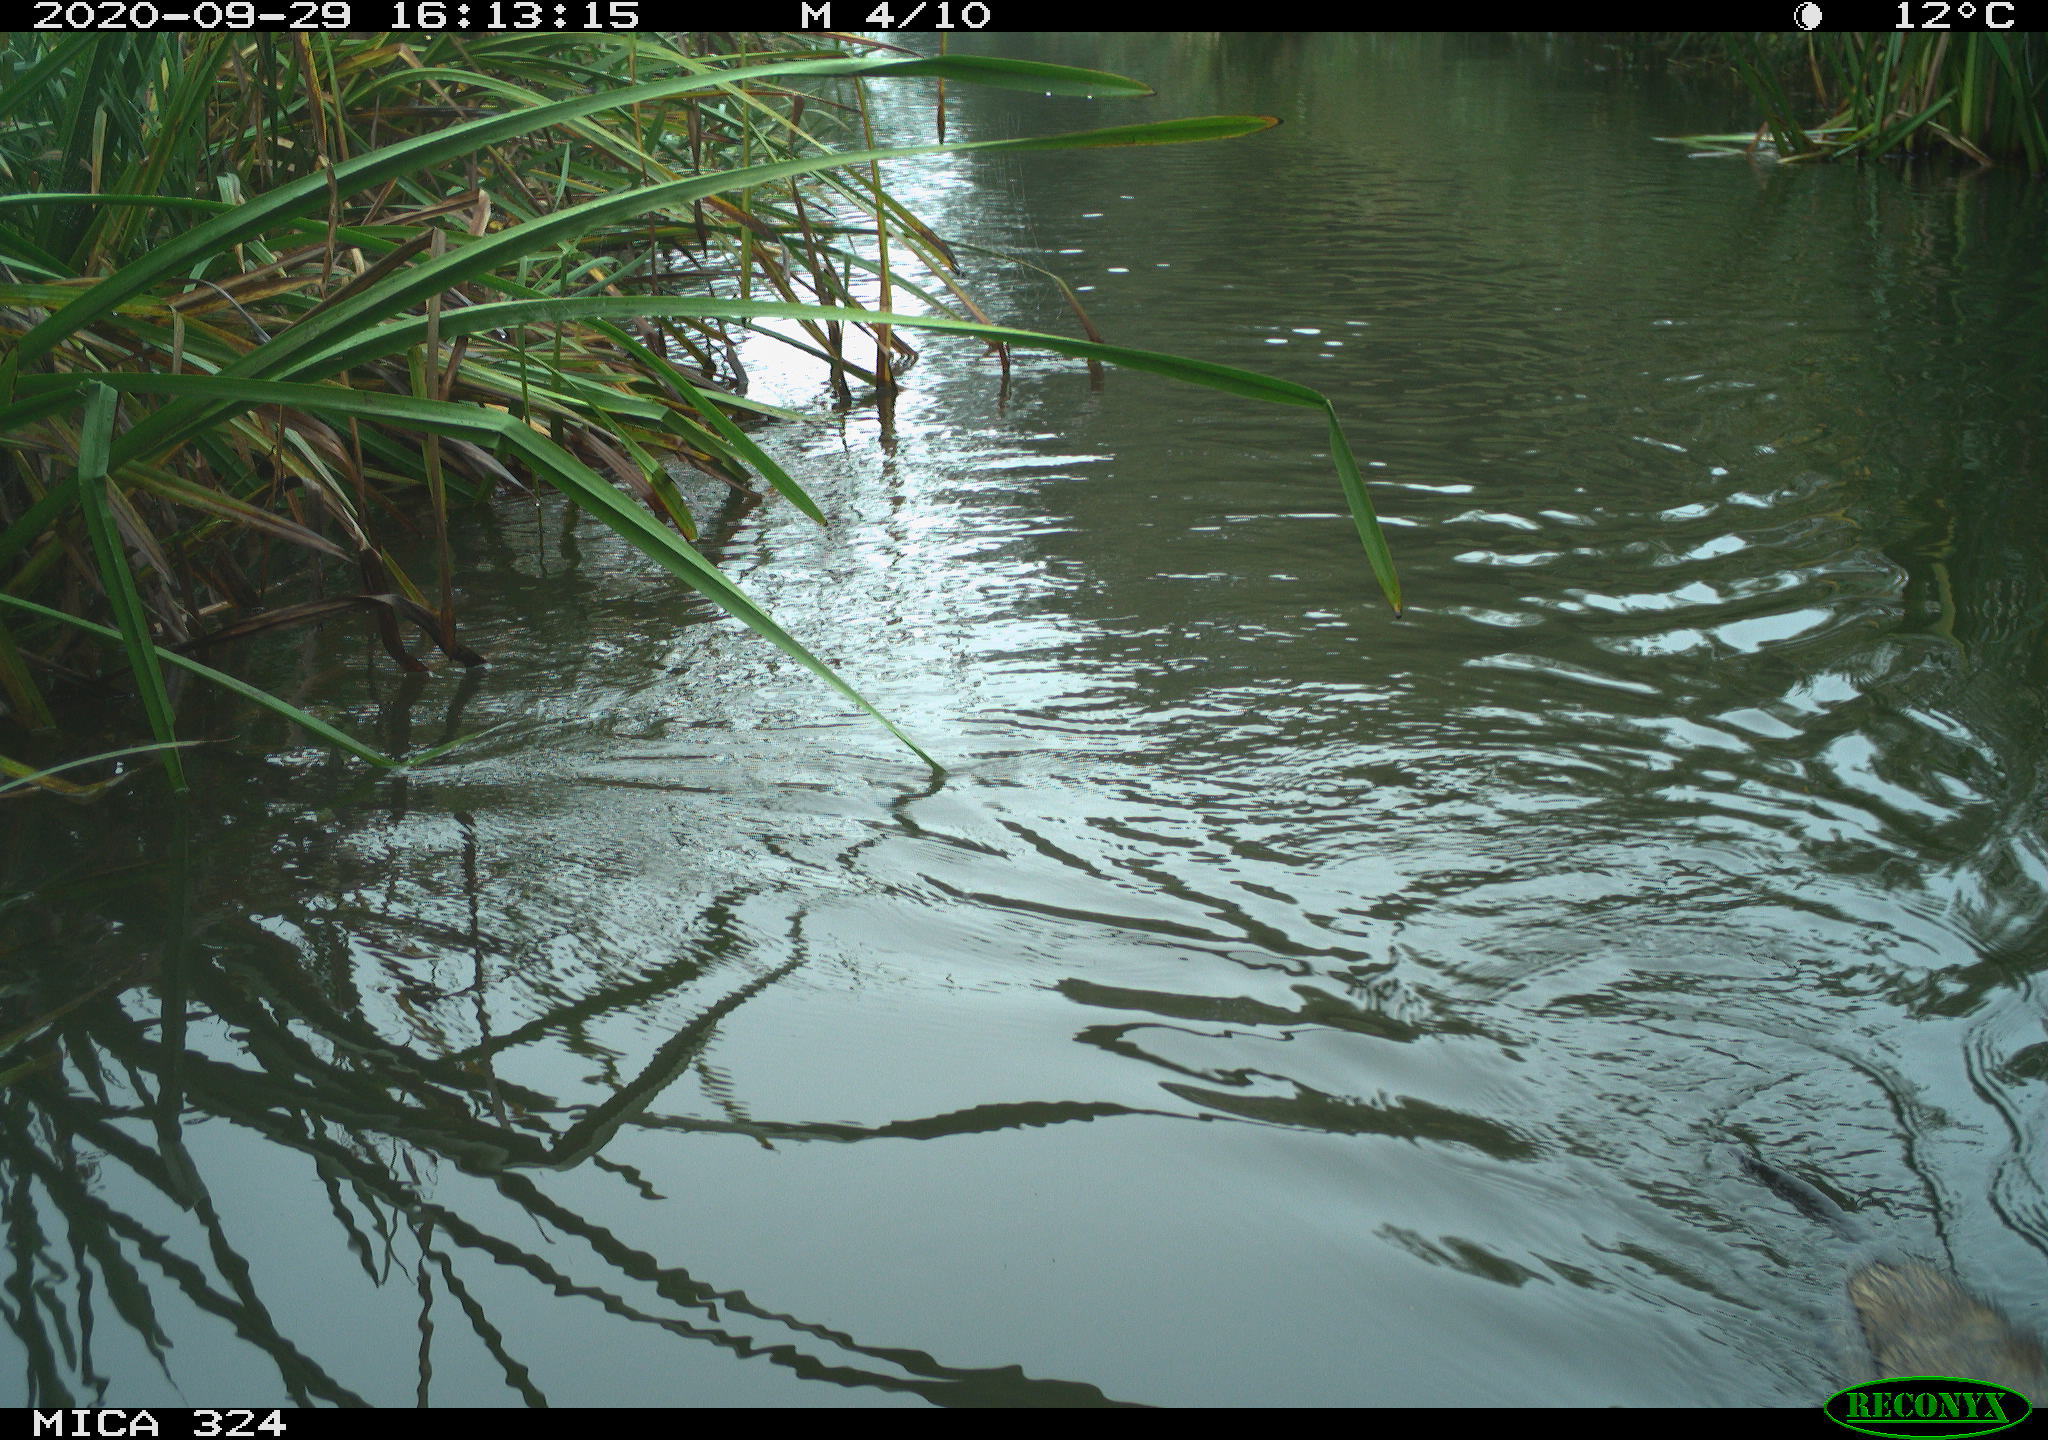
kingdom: Animalia
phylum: Chordata
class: Mammalia
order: Rodentia
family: Cricetidae
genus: Ondatra
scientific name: Ondatra zibethicus
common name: Muskrat
